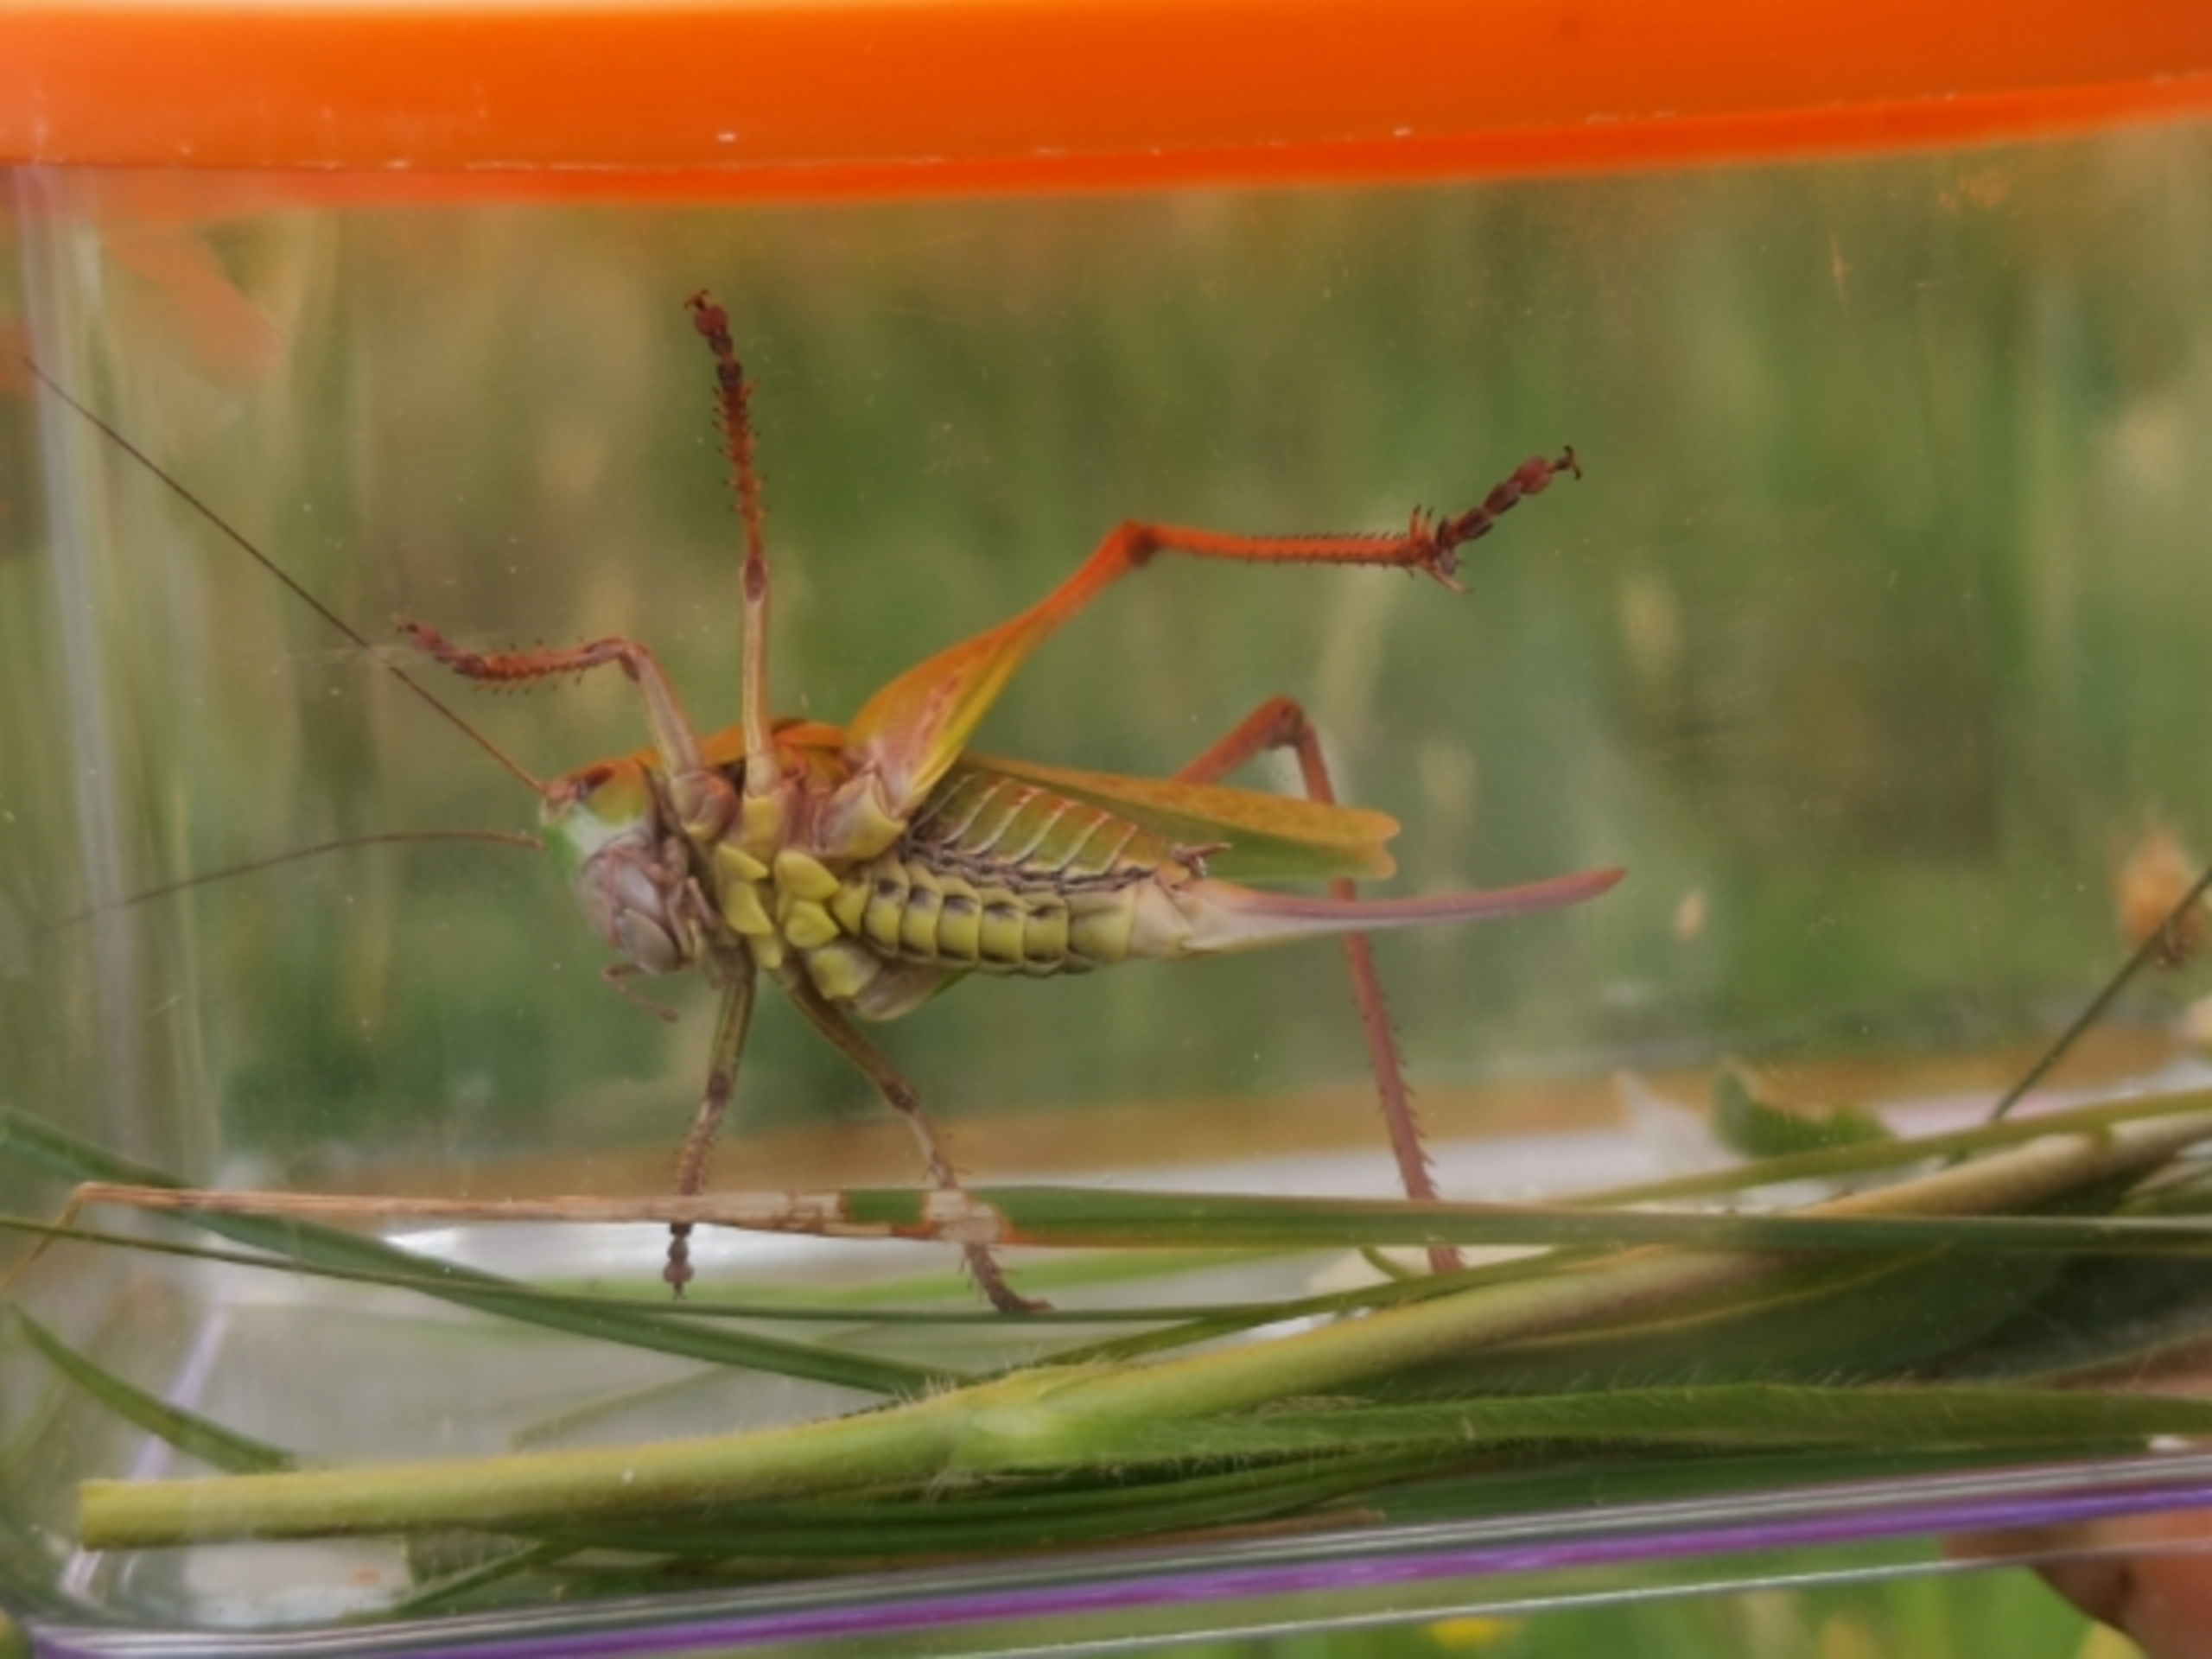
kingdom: Animalia
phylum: Arthropoda
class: Insecta
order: Orthoptera
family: Tettigoniidae
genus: Decticus
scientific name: Decticus verrucivorus
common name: Vortebider
